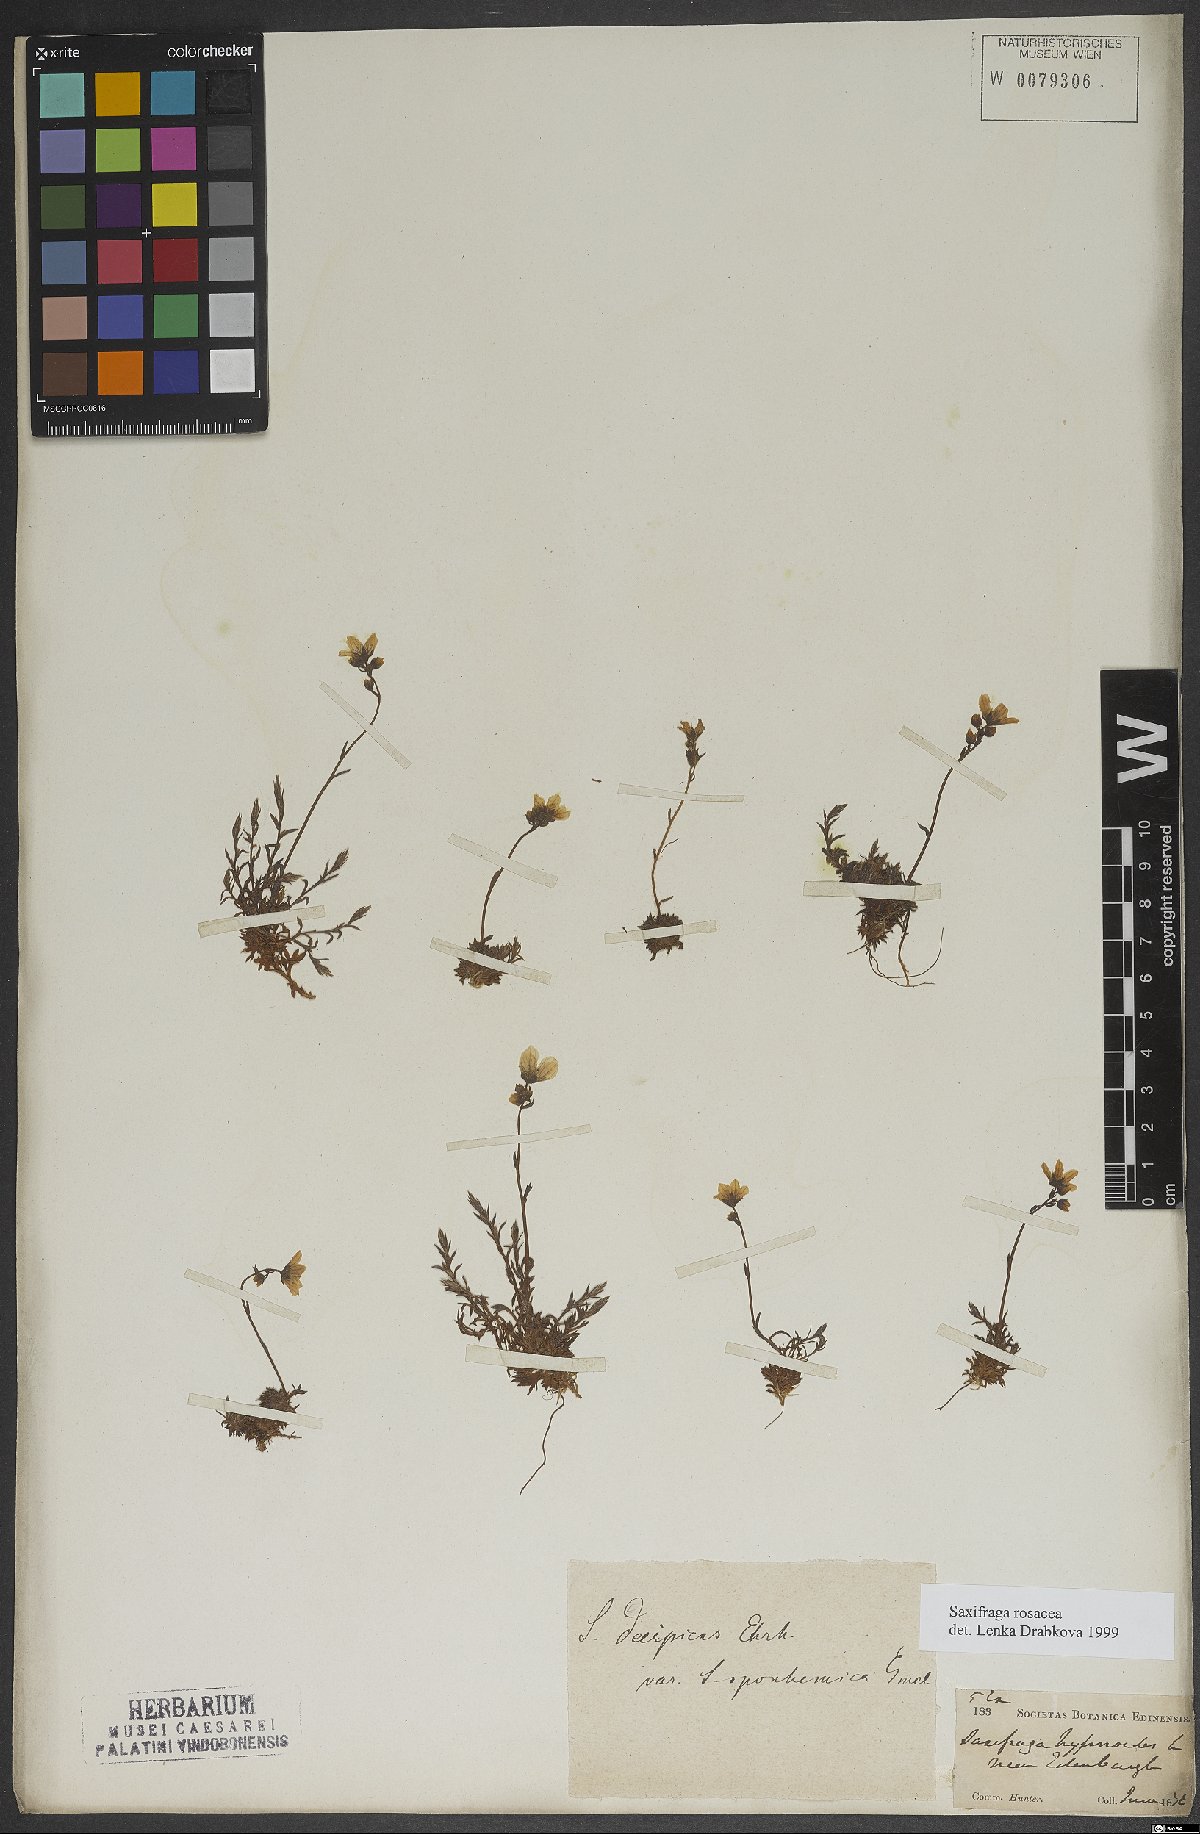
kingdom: Plantae
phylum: Tracheophyta
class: Magnoliopsida
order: Saxifragales
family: Saxifragaceae
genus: Saxifraga
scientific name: Saxifraga rosacea
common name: Irish saxifrage
